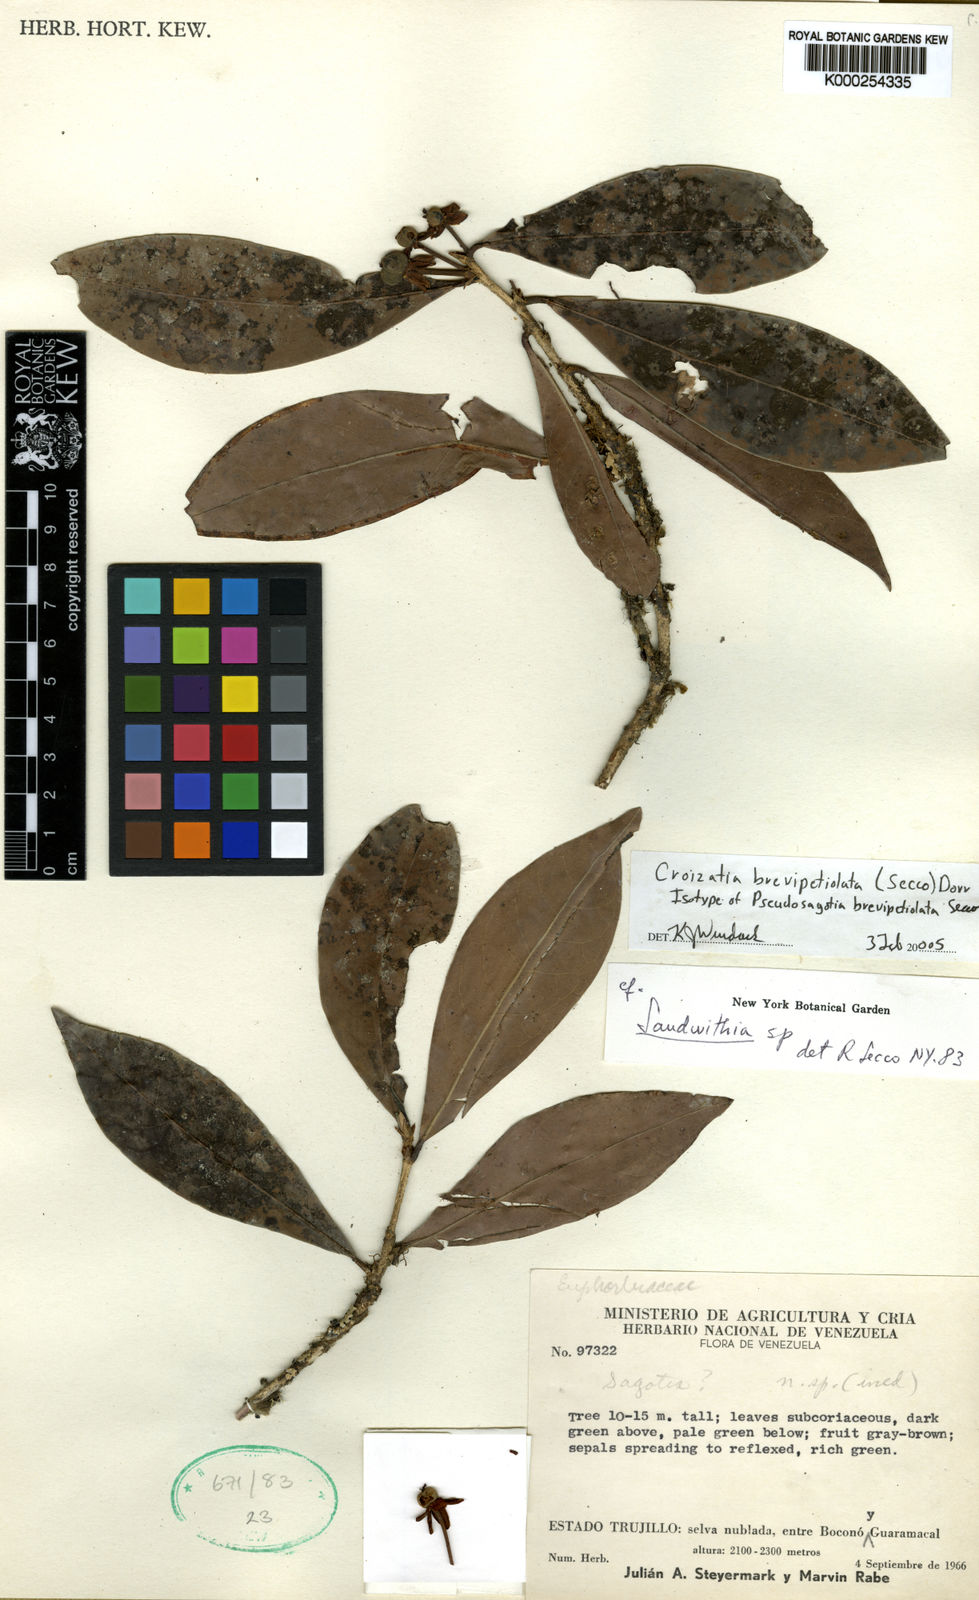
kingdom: Plantae
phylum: Tracheophyta
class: Magnoliopsida
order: Malpighiales
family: Phyllanthaceae
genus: Croizatia
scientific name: Croizatia brevipetiolata
